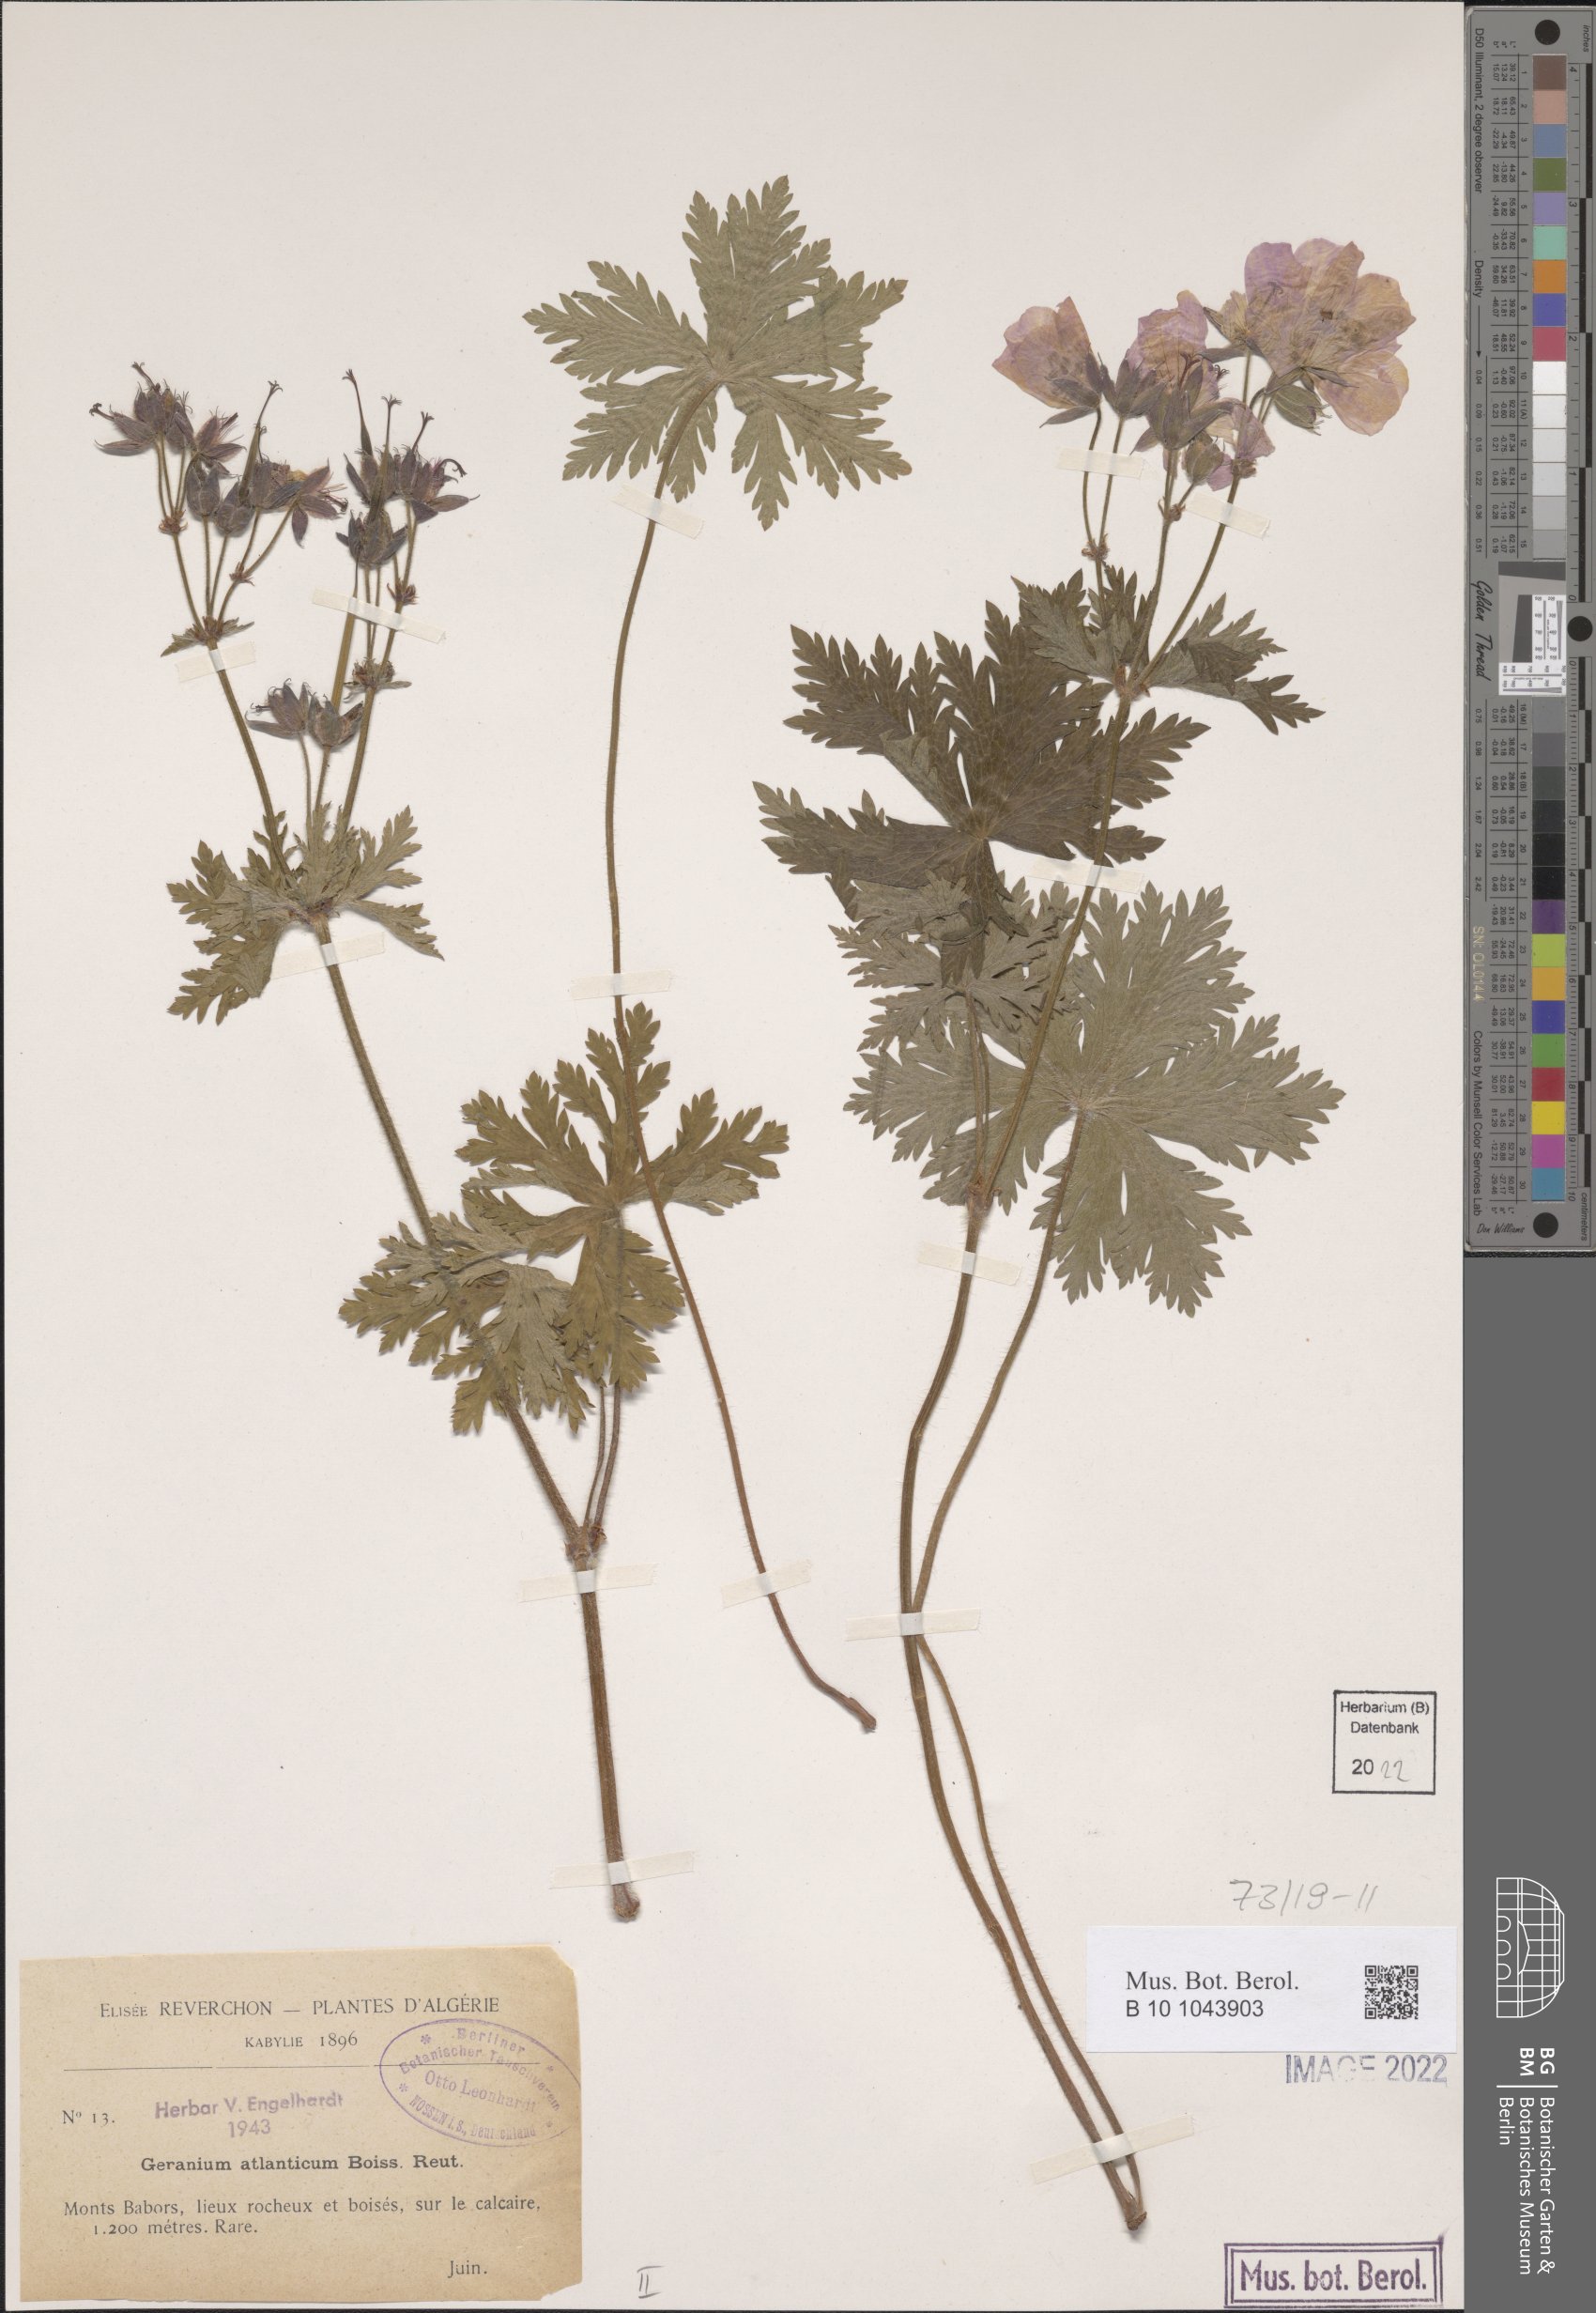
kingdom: Plantae
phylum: Tracheophyta
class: Magnoliopsida
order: Geraniales
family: Geraniaceae
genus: Geranium
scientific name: Geranium atlanticum
